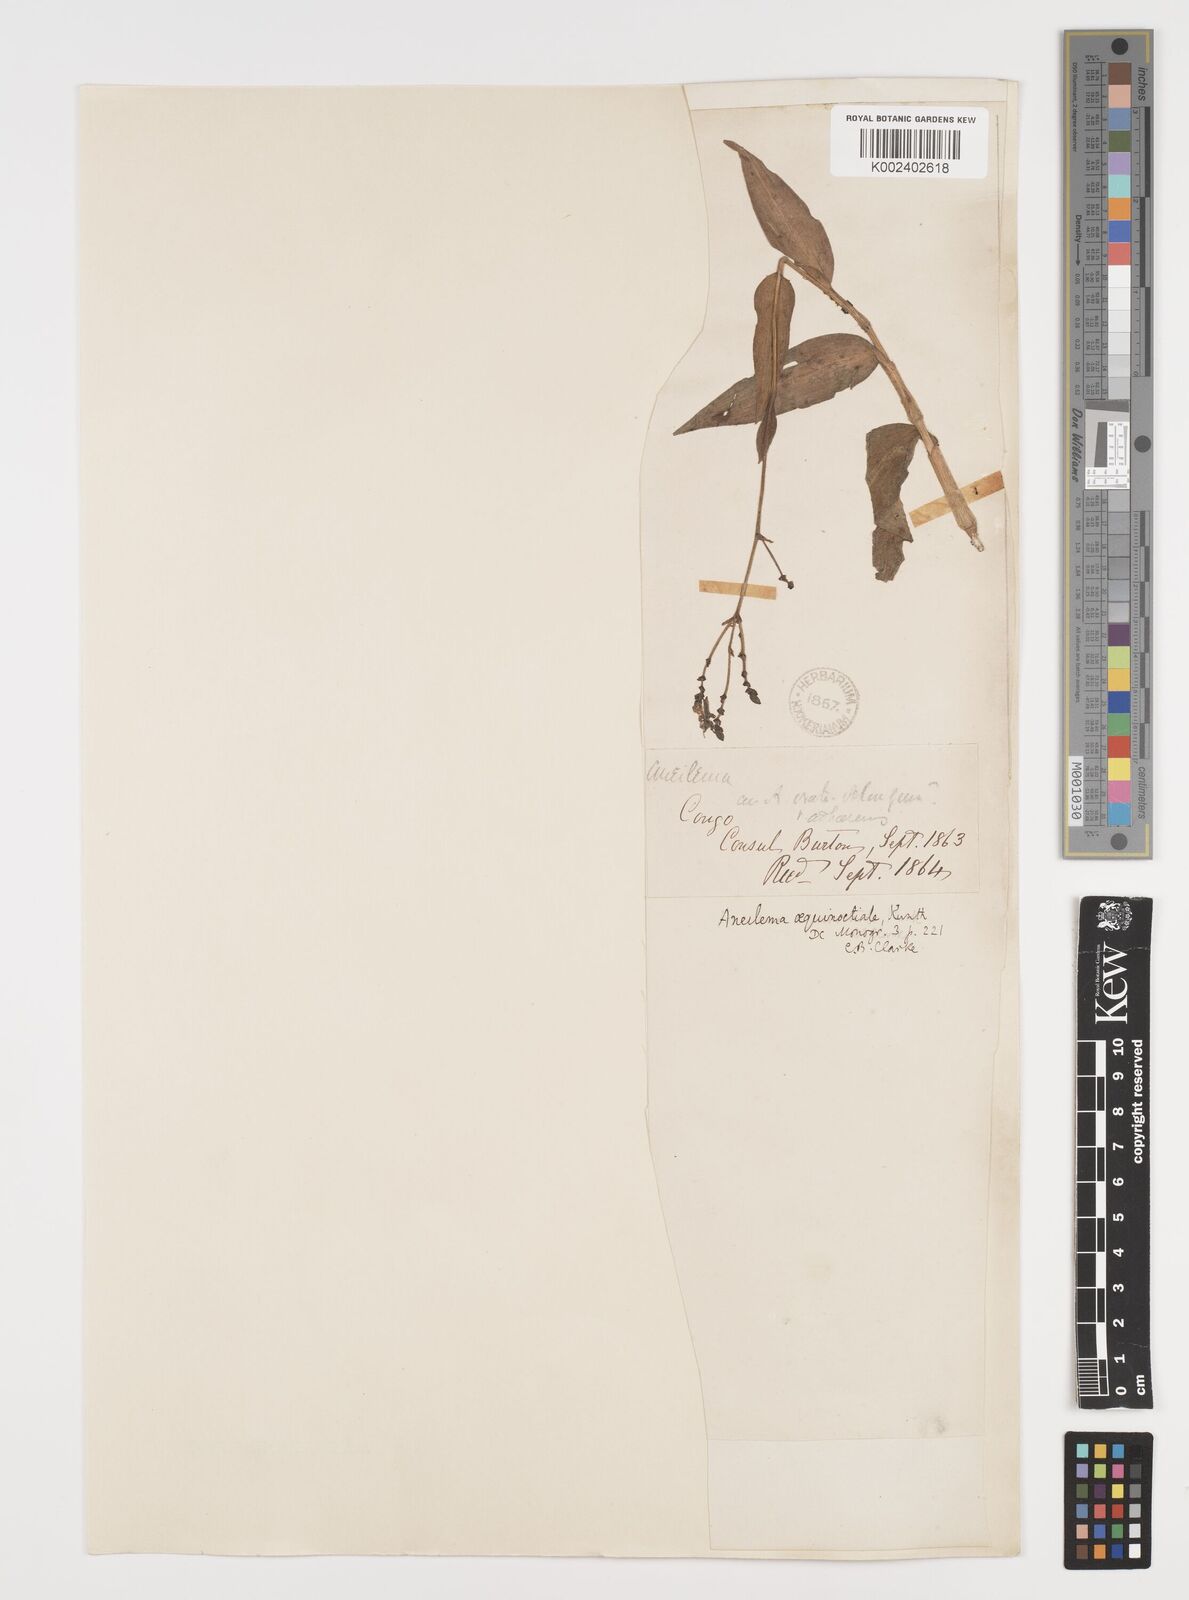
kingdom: Plantae
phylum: Tracheophyta
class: Liliopsida
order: Commelinales
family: Commelinaceae
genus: Aneilema
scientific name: Aneilema aequinoctiale
